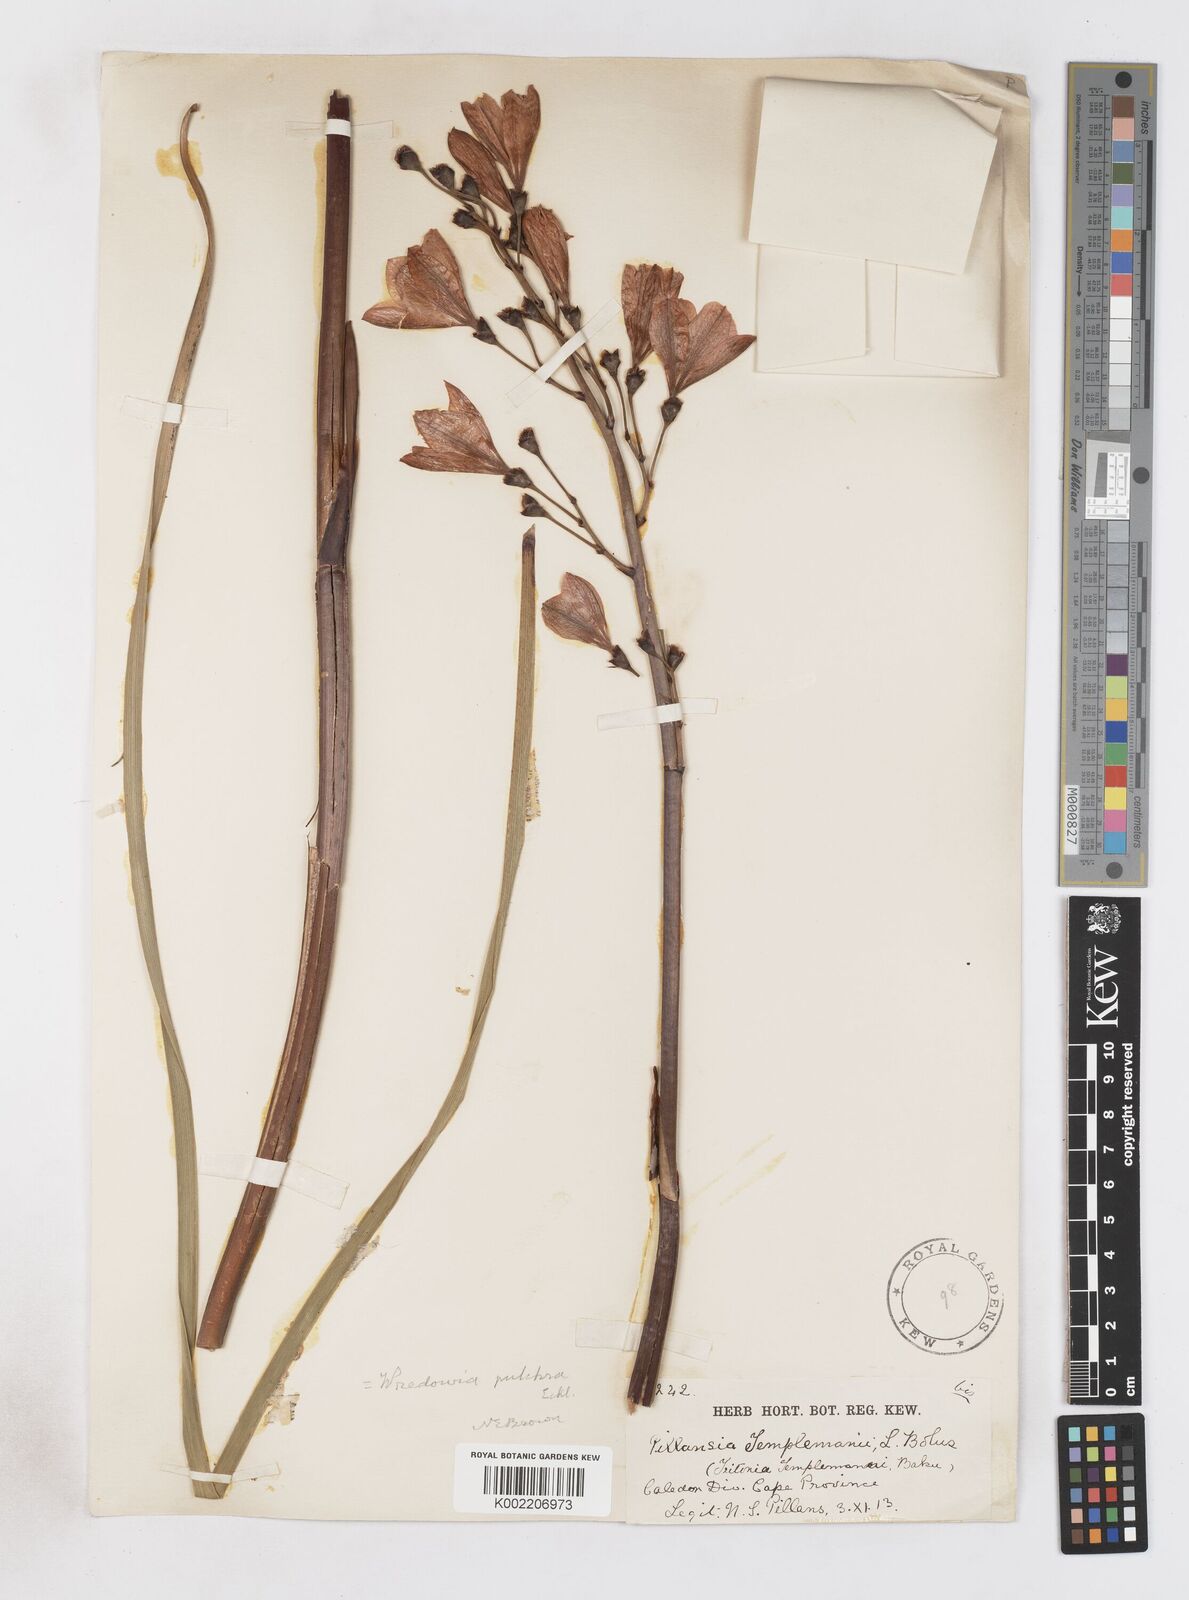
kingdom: Plantae
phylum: Tracheophyta
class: Liliopsida
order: Asparagales
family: Iridaceae
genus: Pillansia
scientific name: Pillansia templemannii
